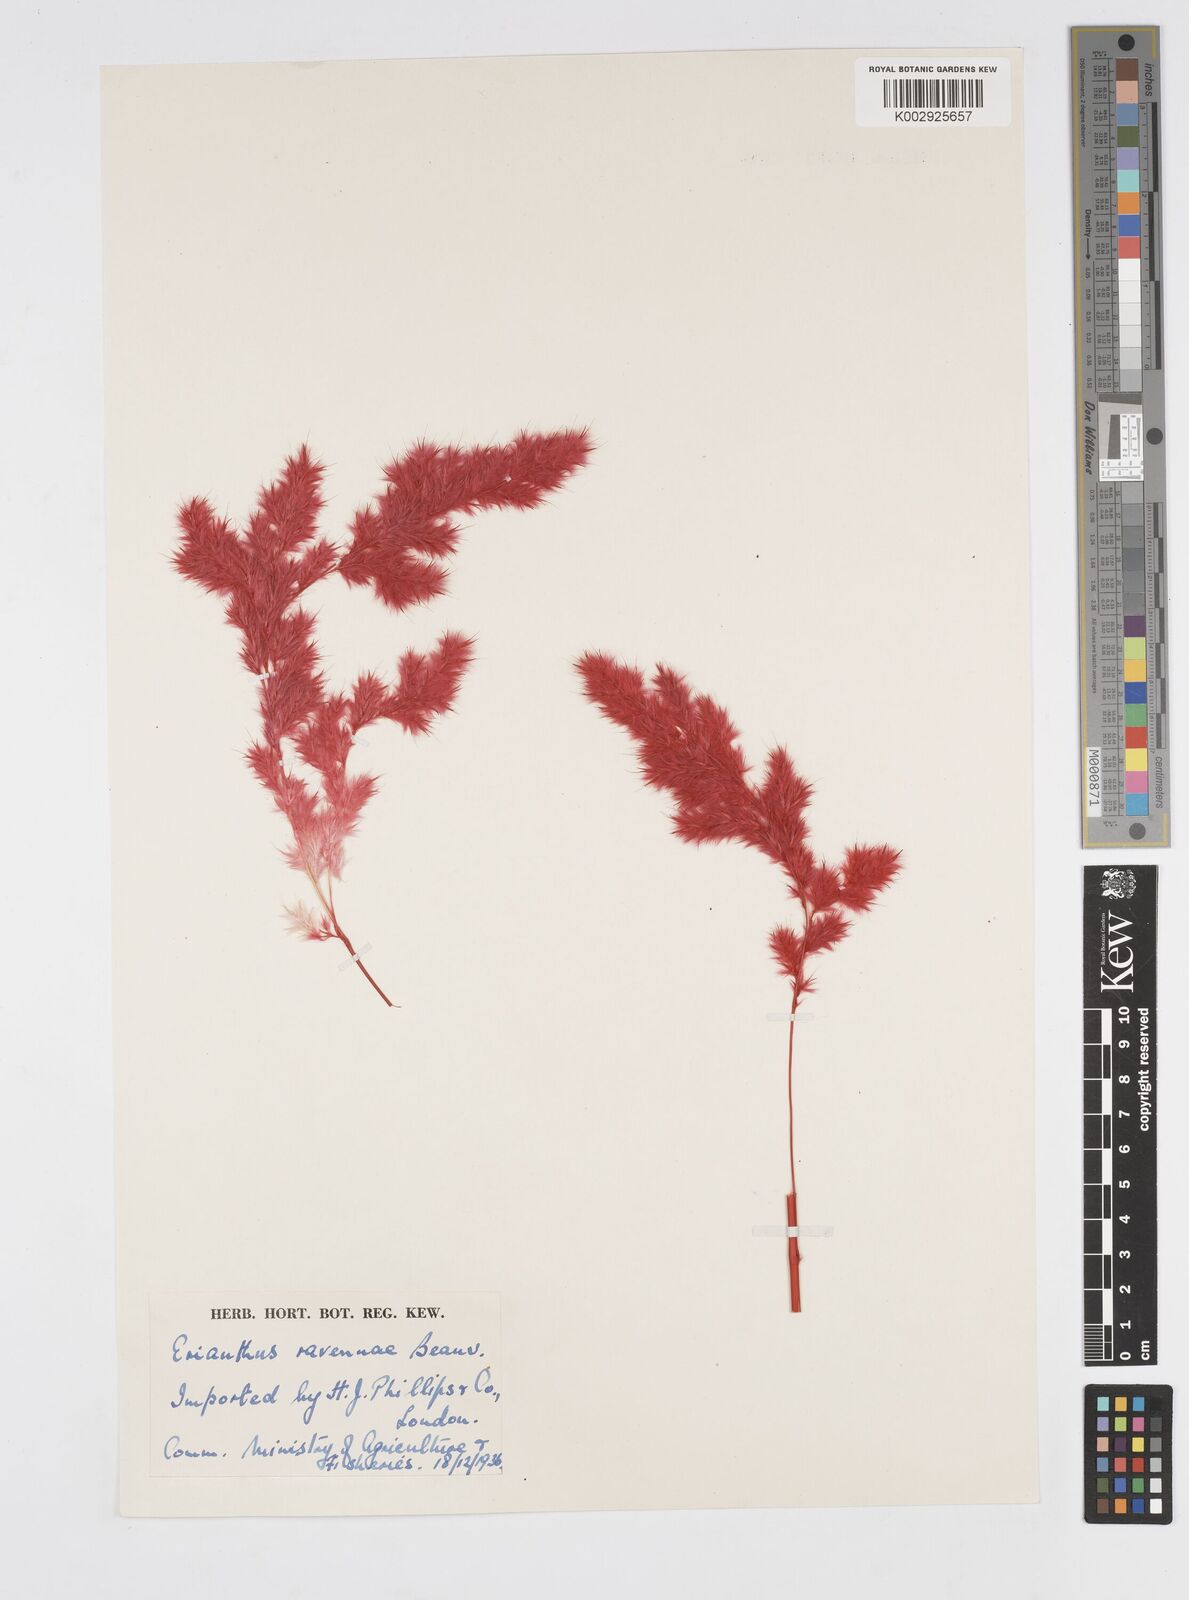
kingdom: Plantae
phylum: Tracheophyta
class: Liliopsida
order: Poales
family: Poaceae
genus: Tripidium
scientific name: Tripidium ravennae
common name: Ravenna grass
